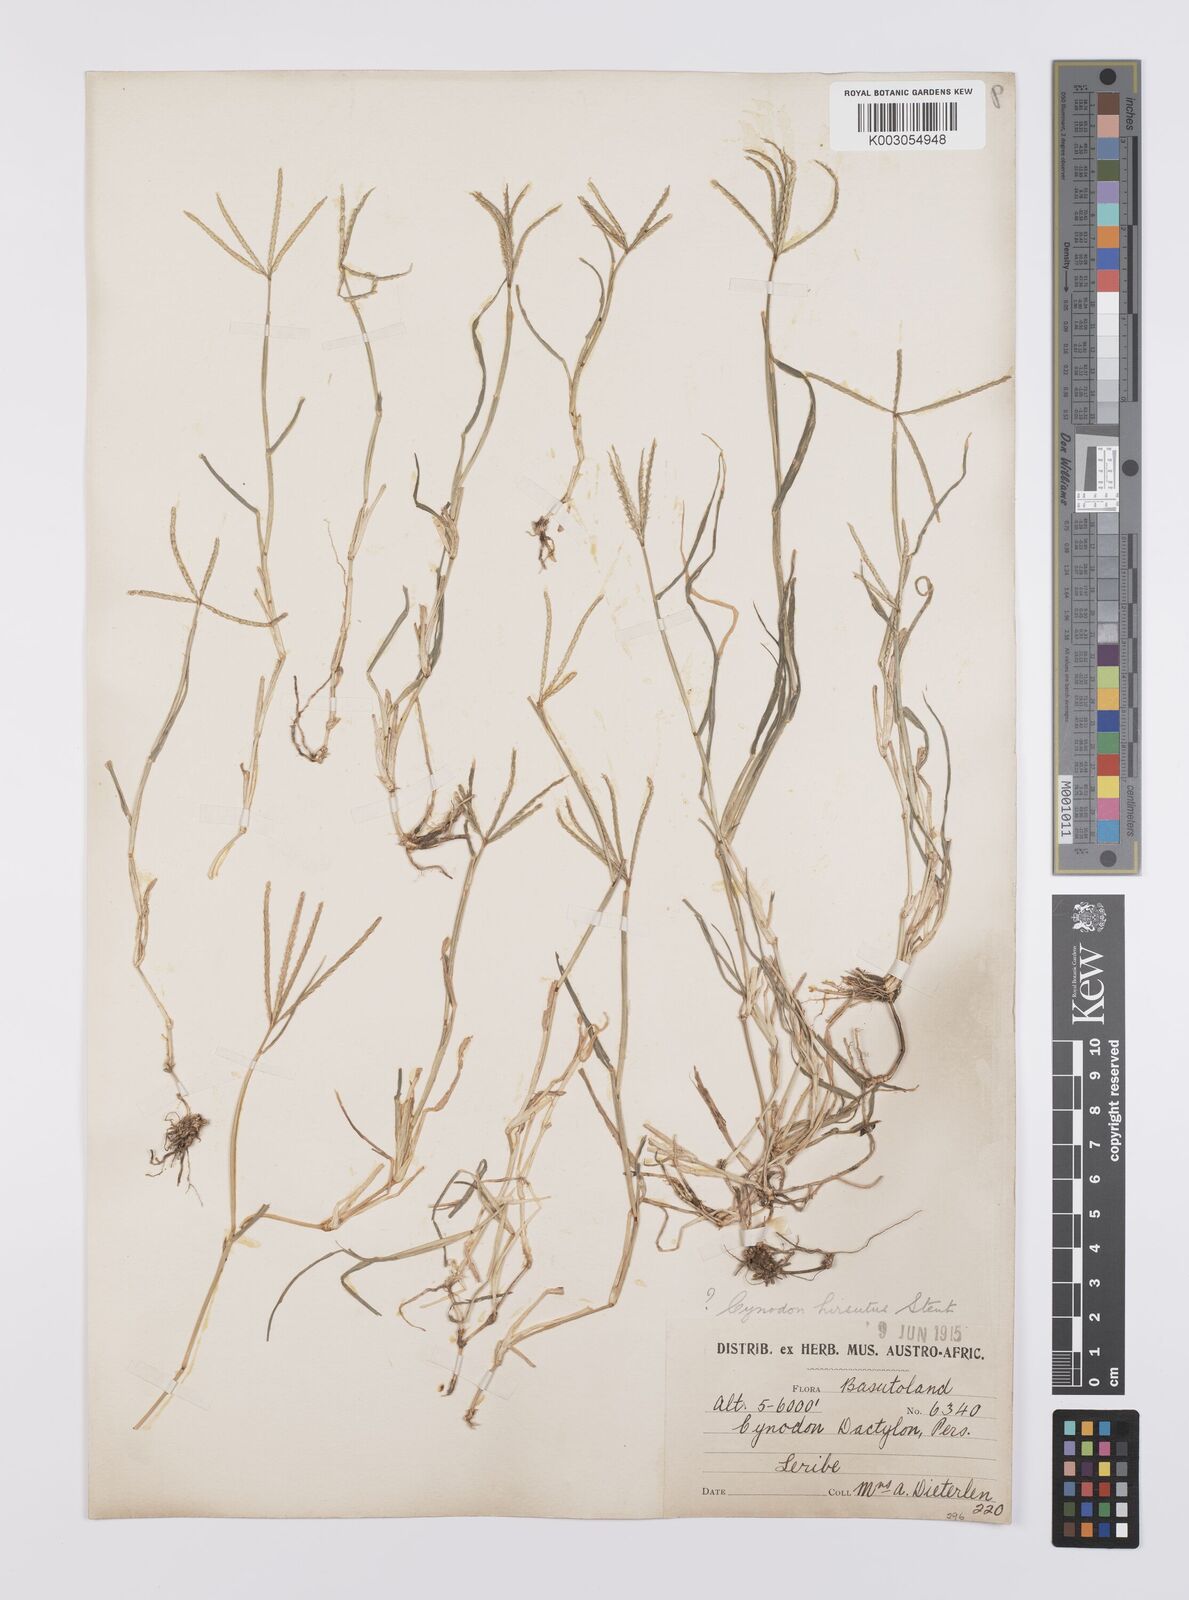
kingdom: Plantae
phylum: Tracheophyta
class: Liliopsida
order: Poales
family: Poaceae
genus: Cynodon
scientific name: Cynodon dactylon
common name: Bermuda grass
